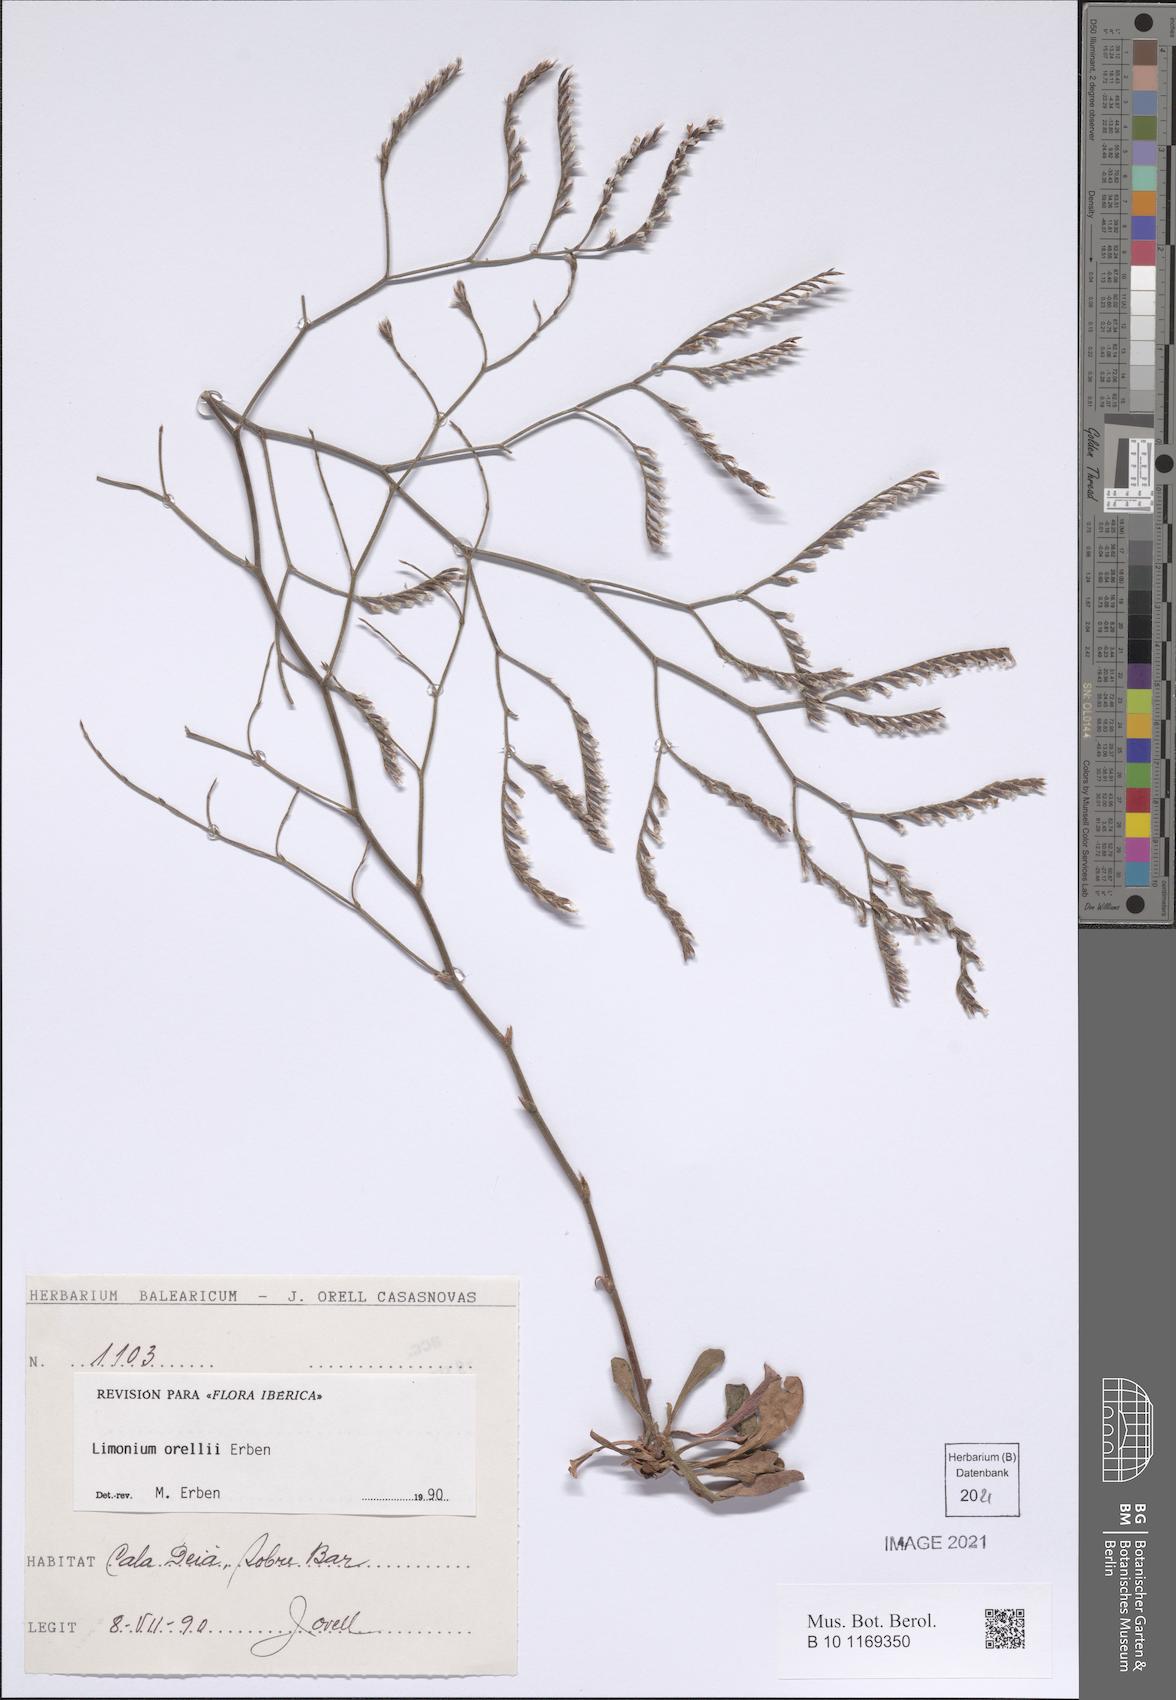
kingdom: Plantae
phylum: Tracheophyta
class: Magnoliopsida
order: Caryophyllales
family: Plumbaginaceae
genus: Limonium
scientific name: Limonium orellii
